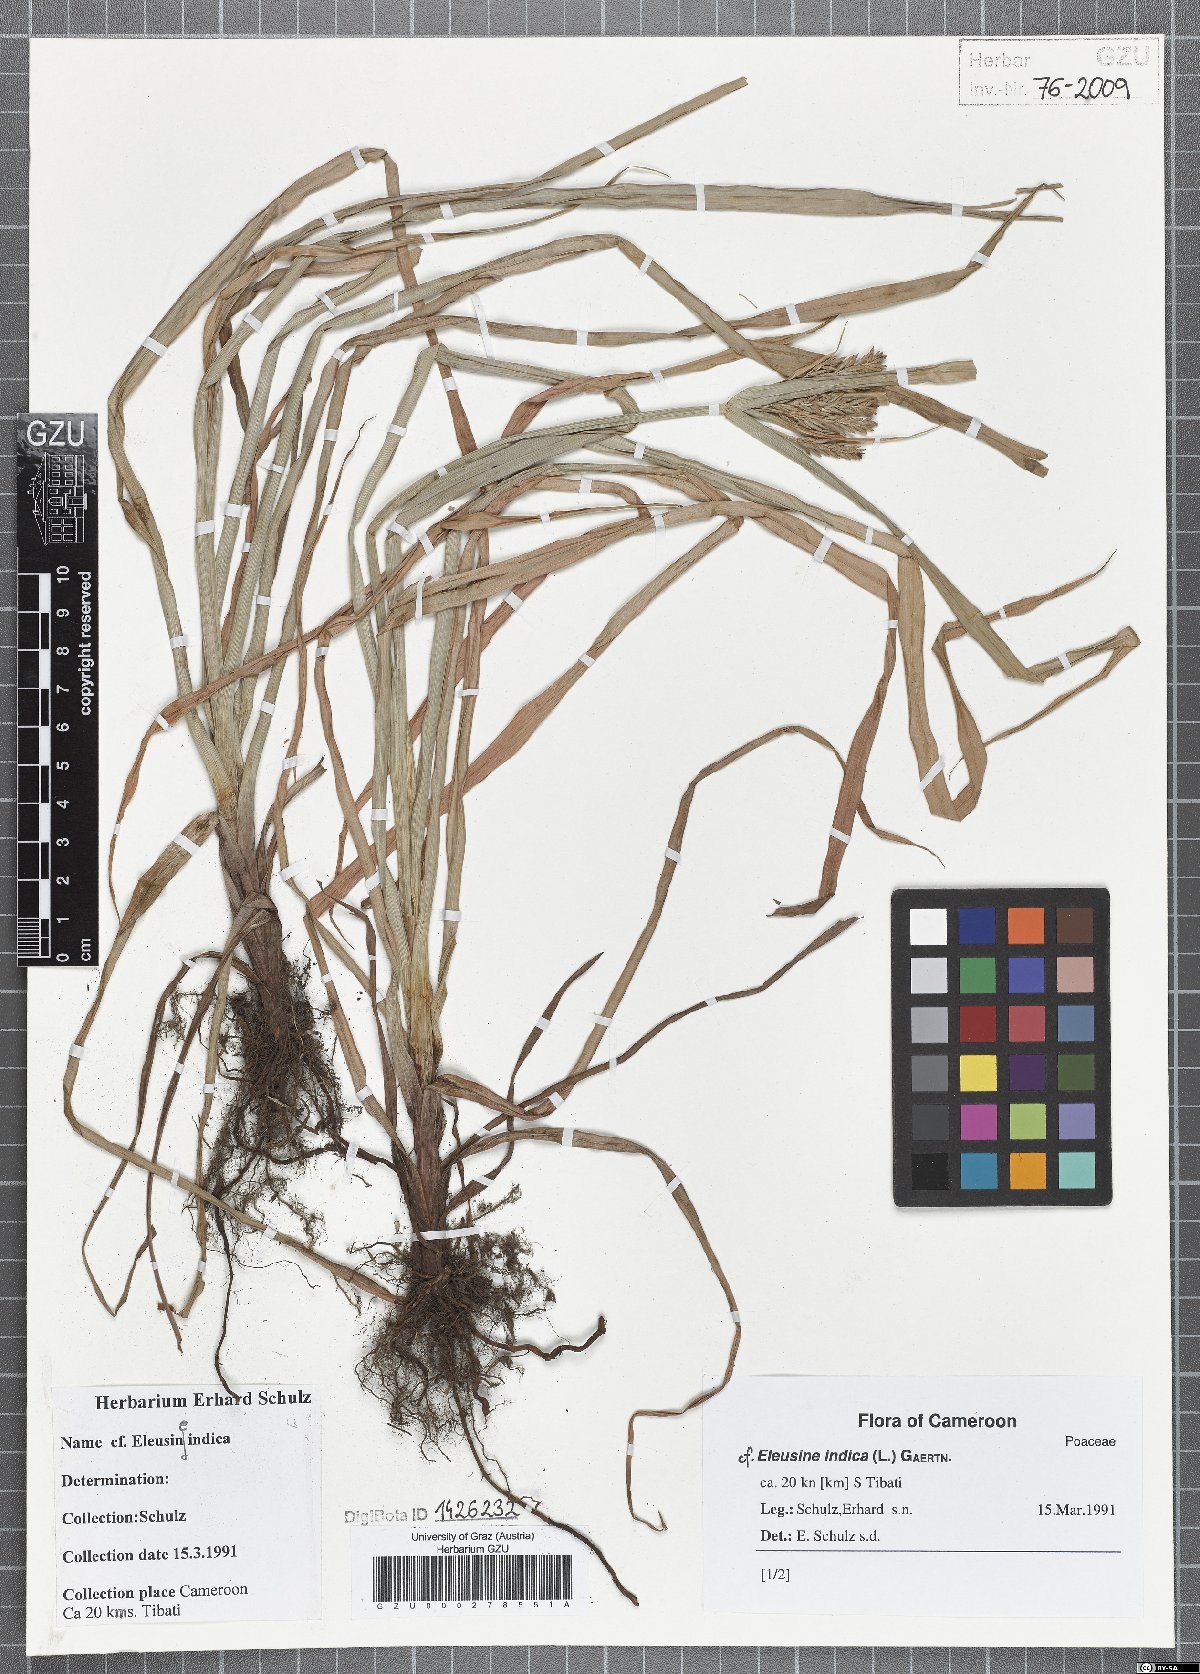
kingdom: Plantae
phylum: Tracheophyta
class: Liliopsida
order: Poales
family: Poaceae
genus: Eleusine
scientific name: Eleusine indica
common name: Yard-grass
